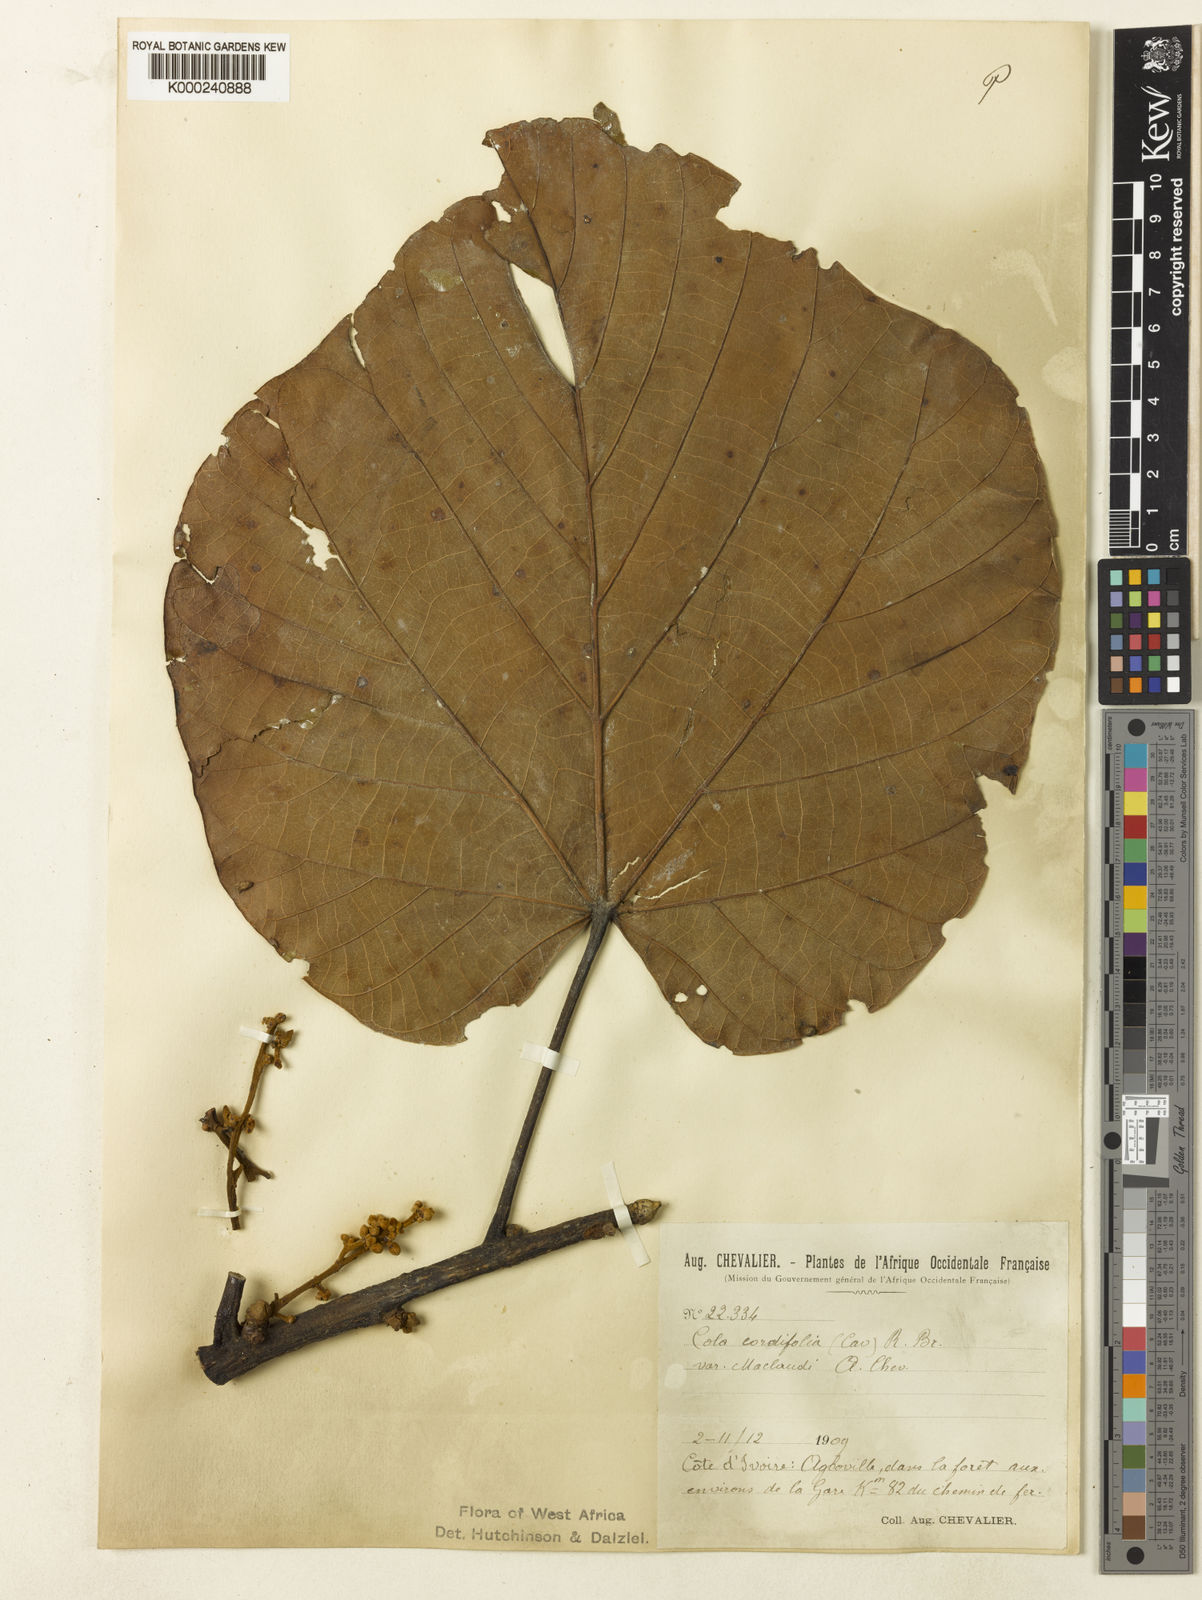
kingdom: Plantae
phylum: Tracheophyta
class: Magnoliopsida
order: Malvales
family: Malvaceae
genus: Cola
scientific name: Cola gigantea
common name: Giant cola
